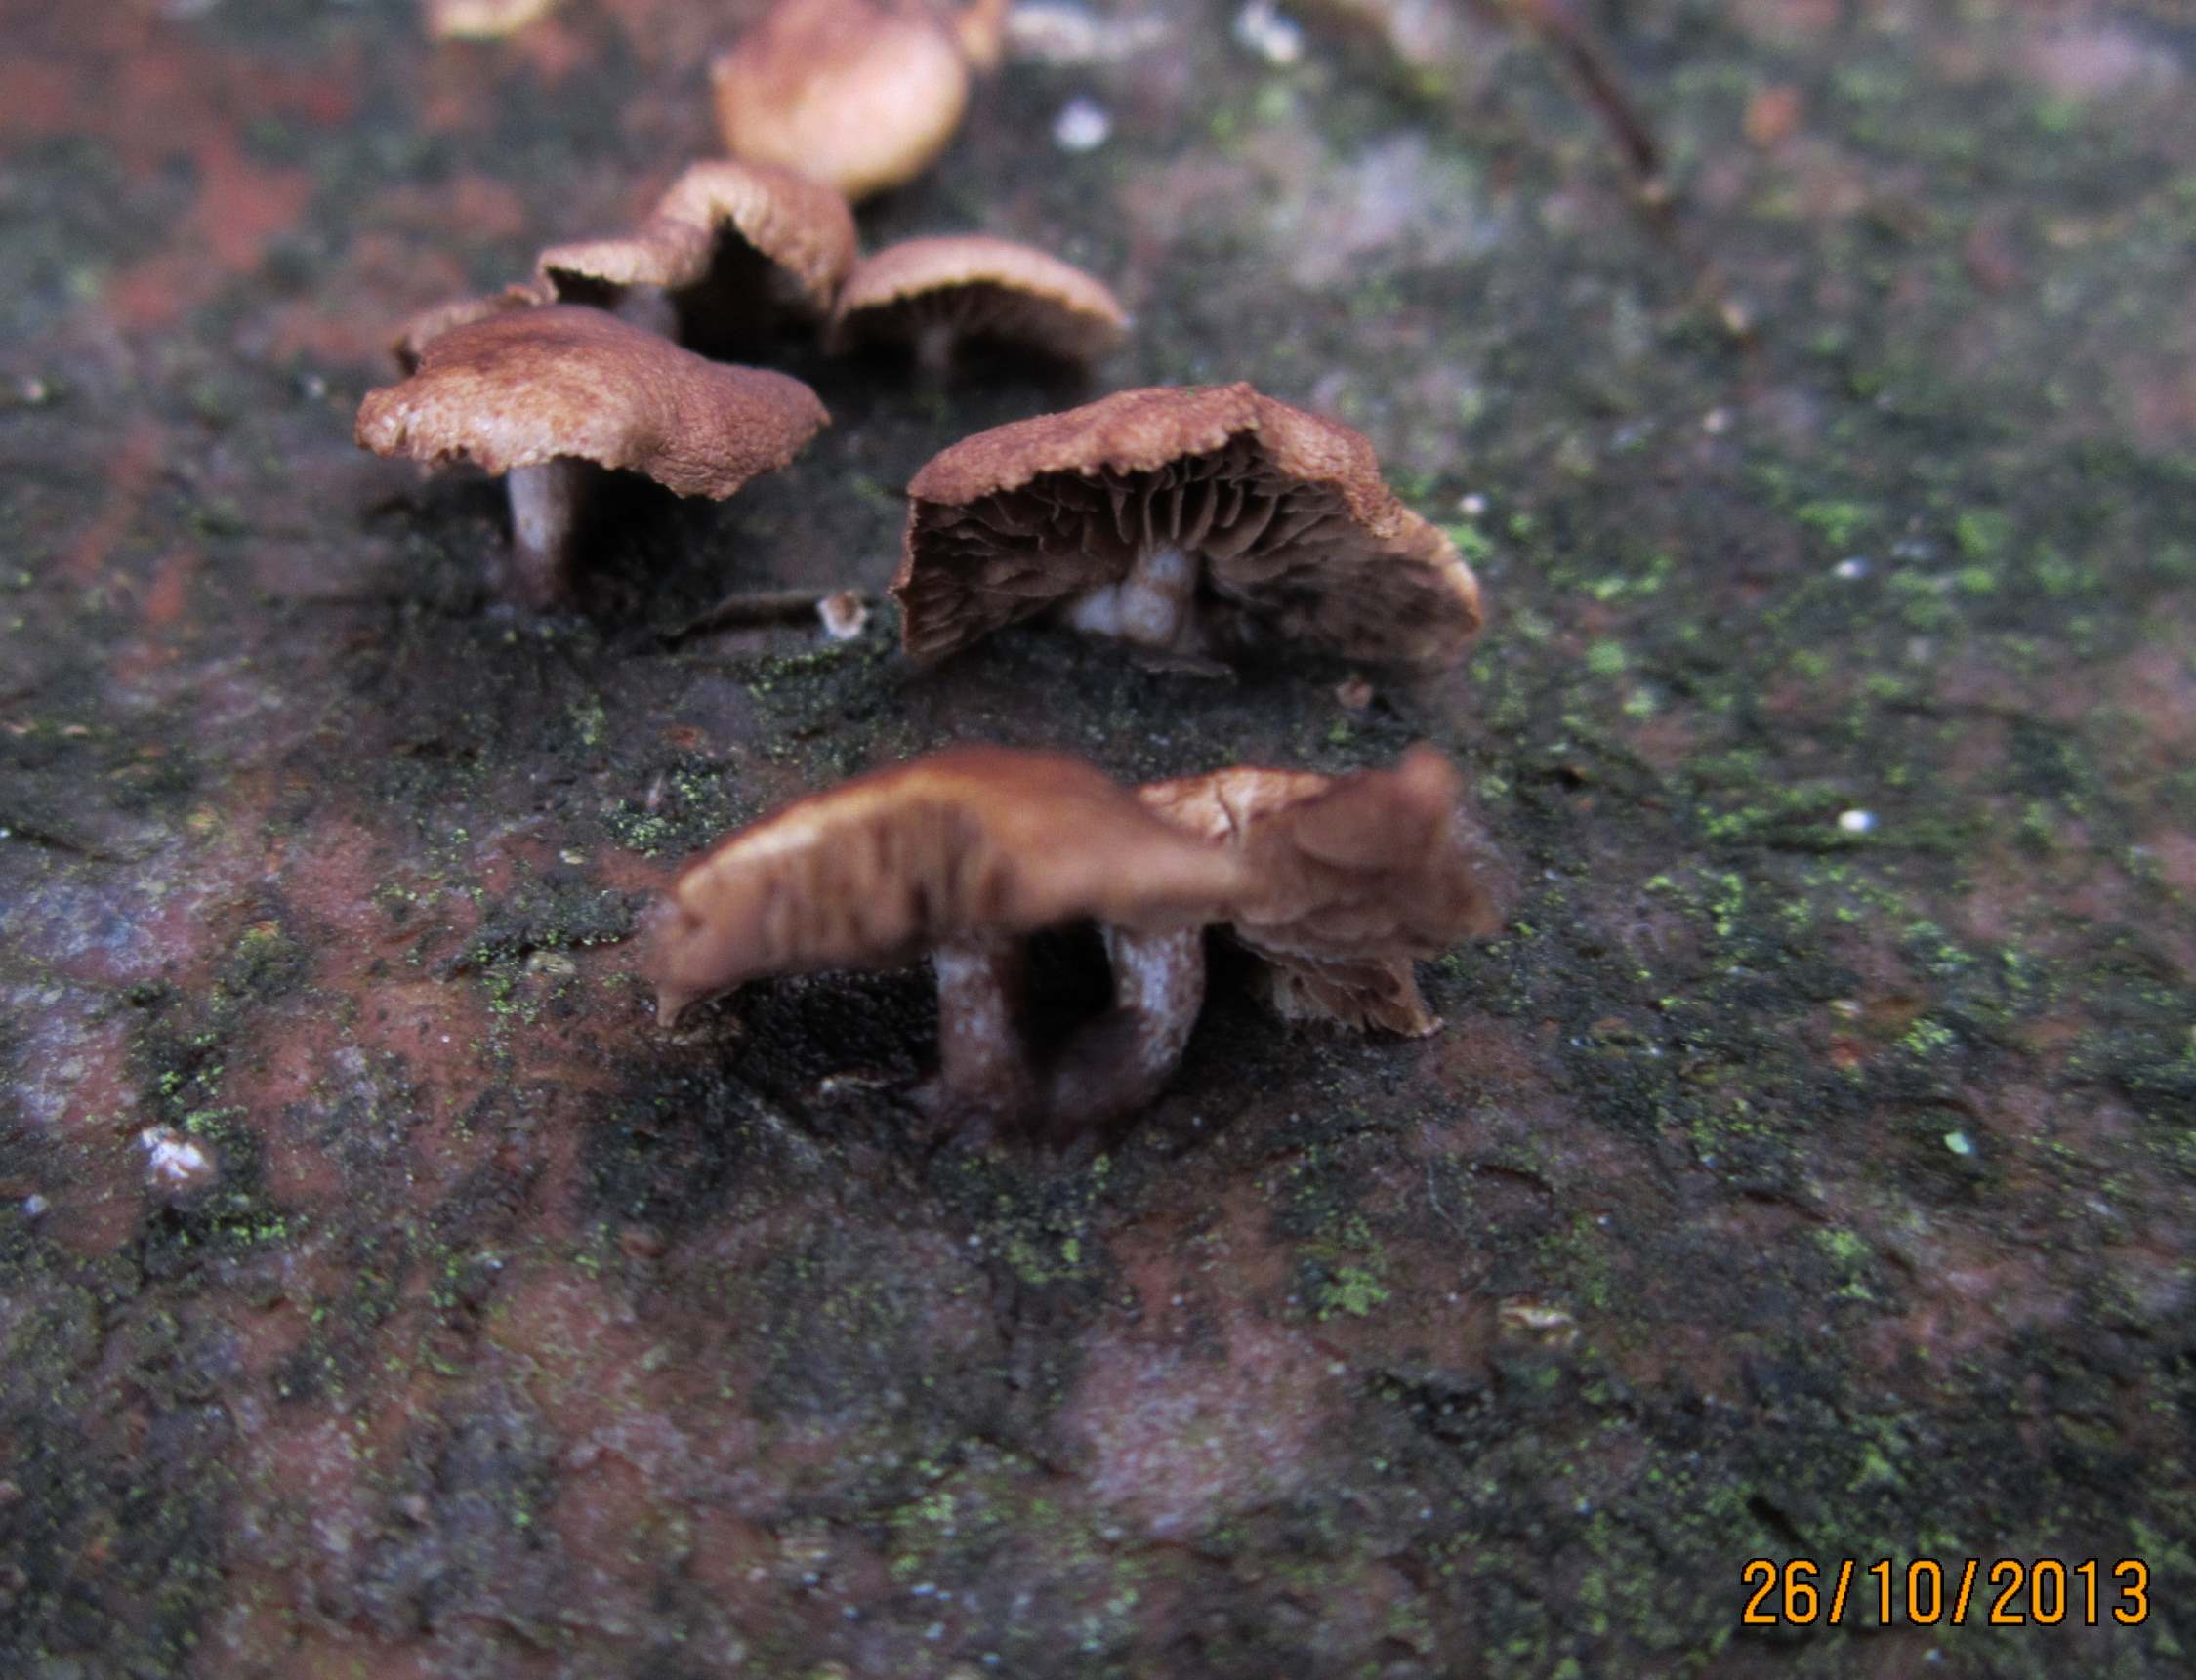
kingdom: Fungi
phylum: Basidiomycota
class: Agaricomycetes
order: Agaricales
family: Strophariaceae
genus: Deconica
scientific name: Deconica horizontalis
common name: ved-stråhat
